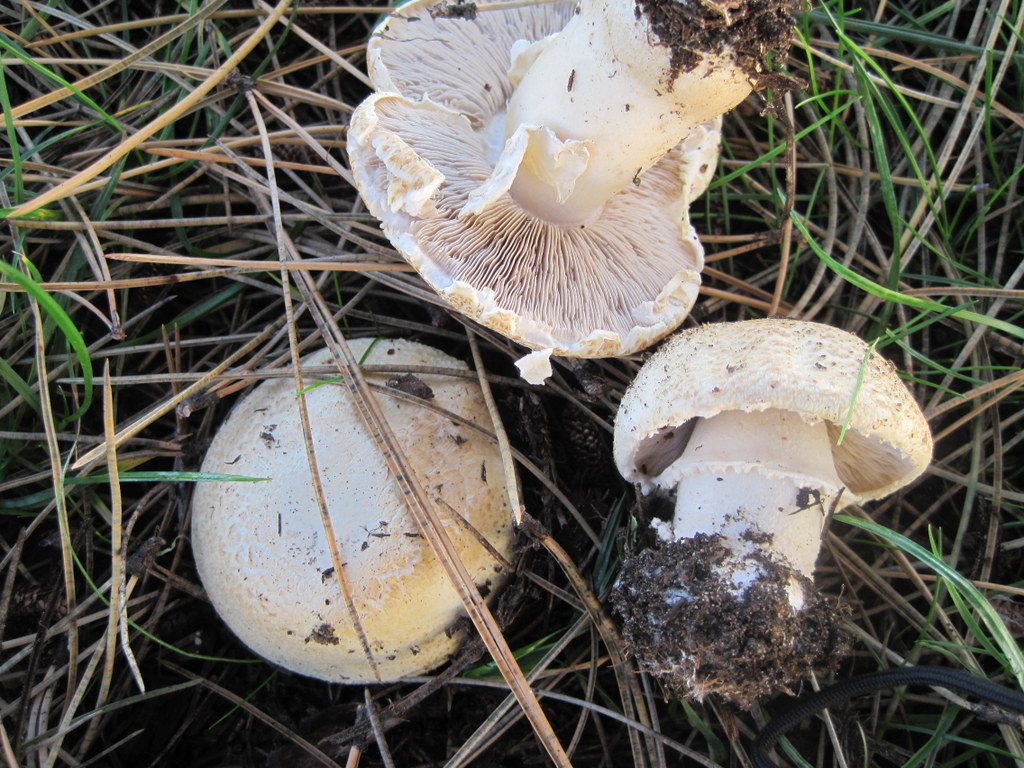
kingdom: Fungi
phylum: Basidiomycota
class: Agaricomycetes
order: Agaricales
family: Agaricaceae
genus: Agaricus
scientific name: Agaricus arvensis
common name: ager-champignon
